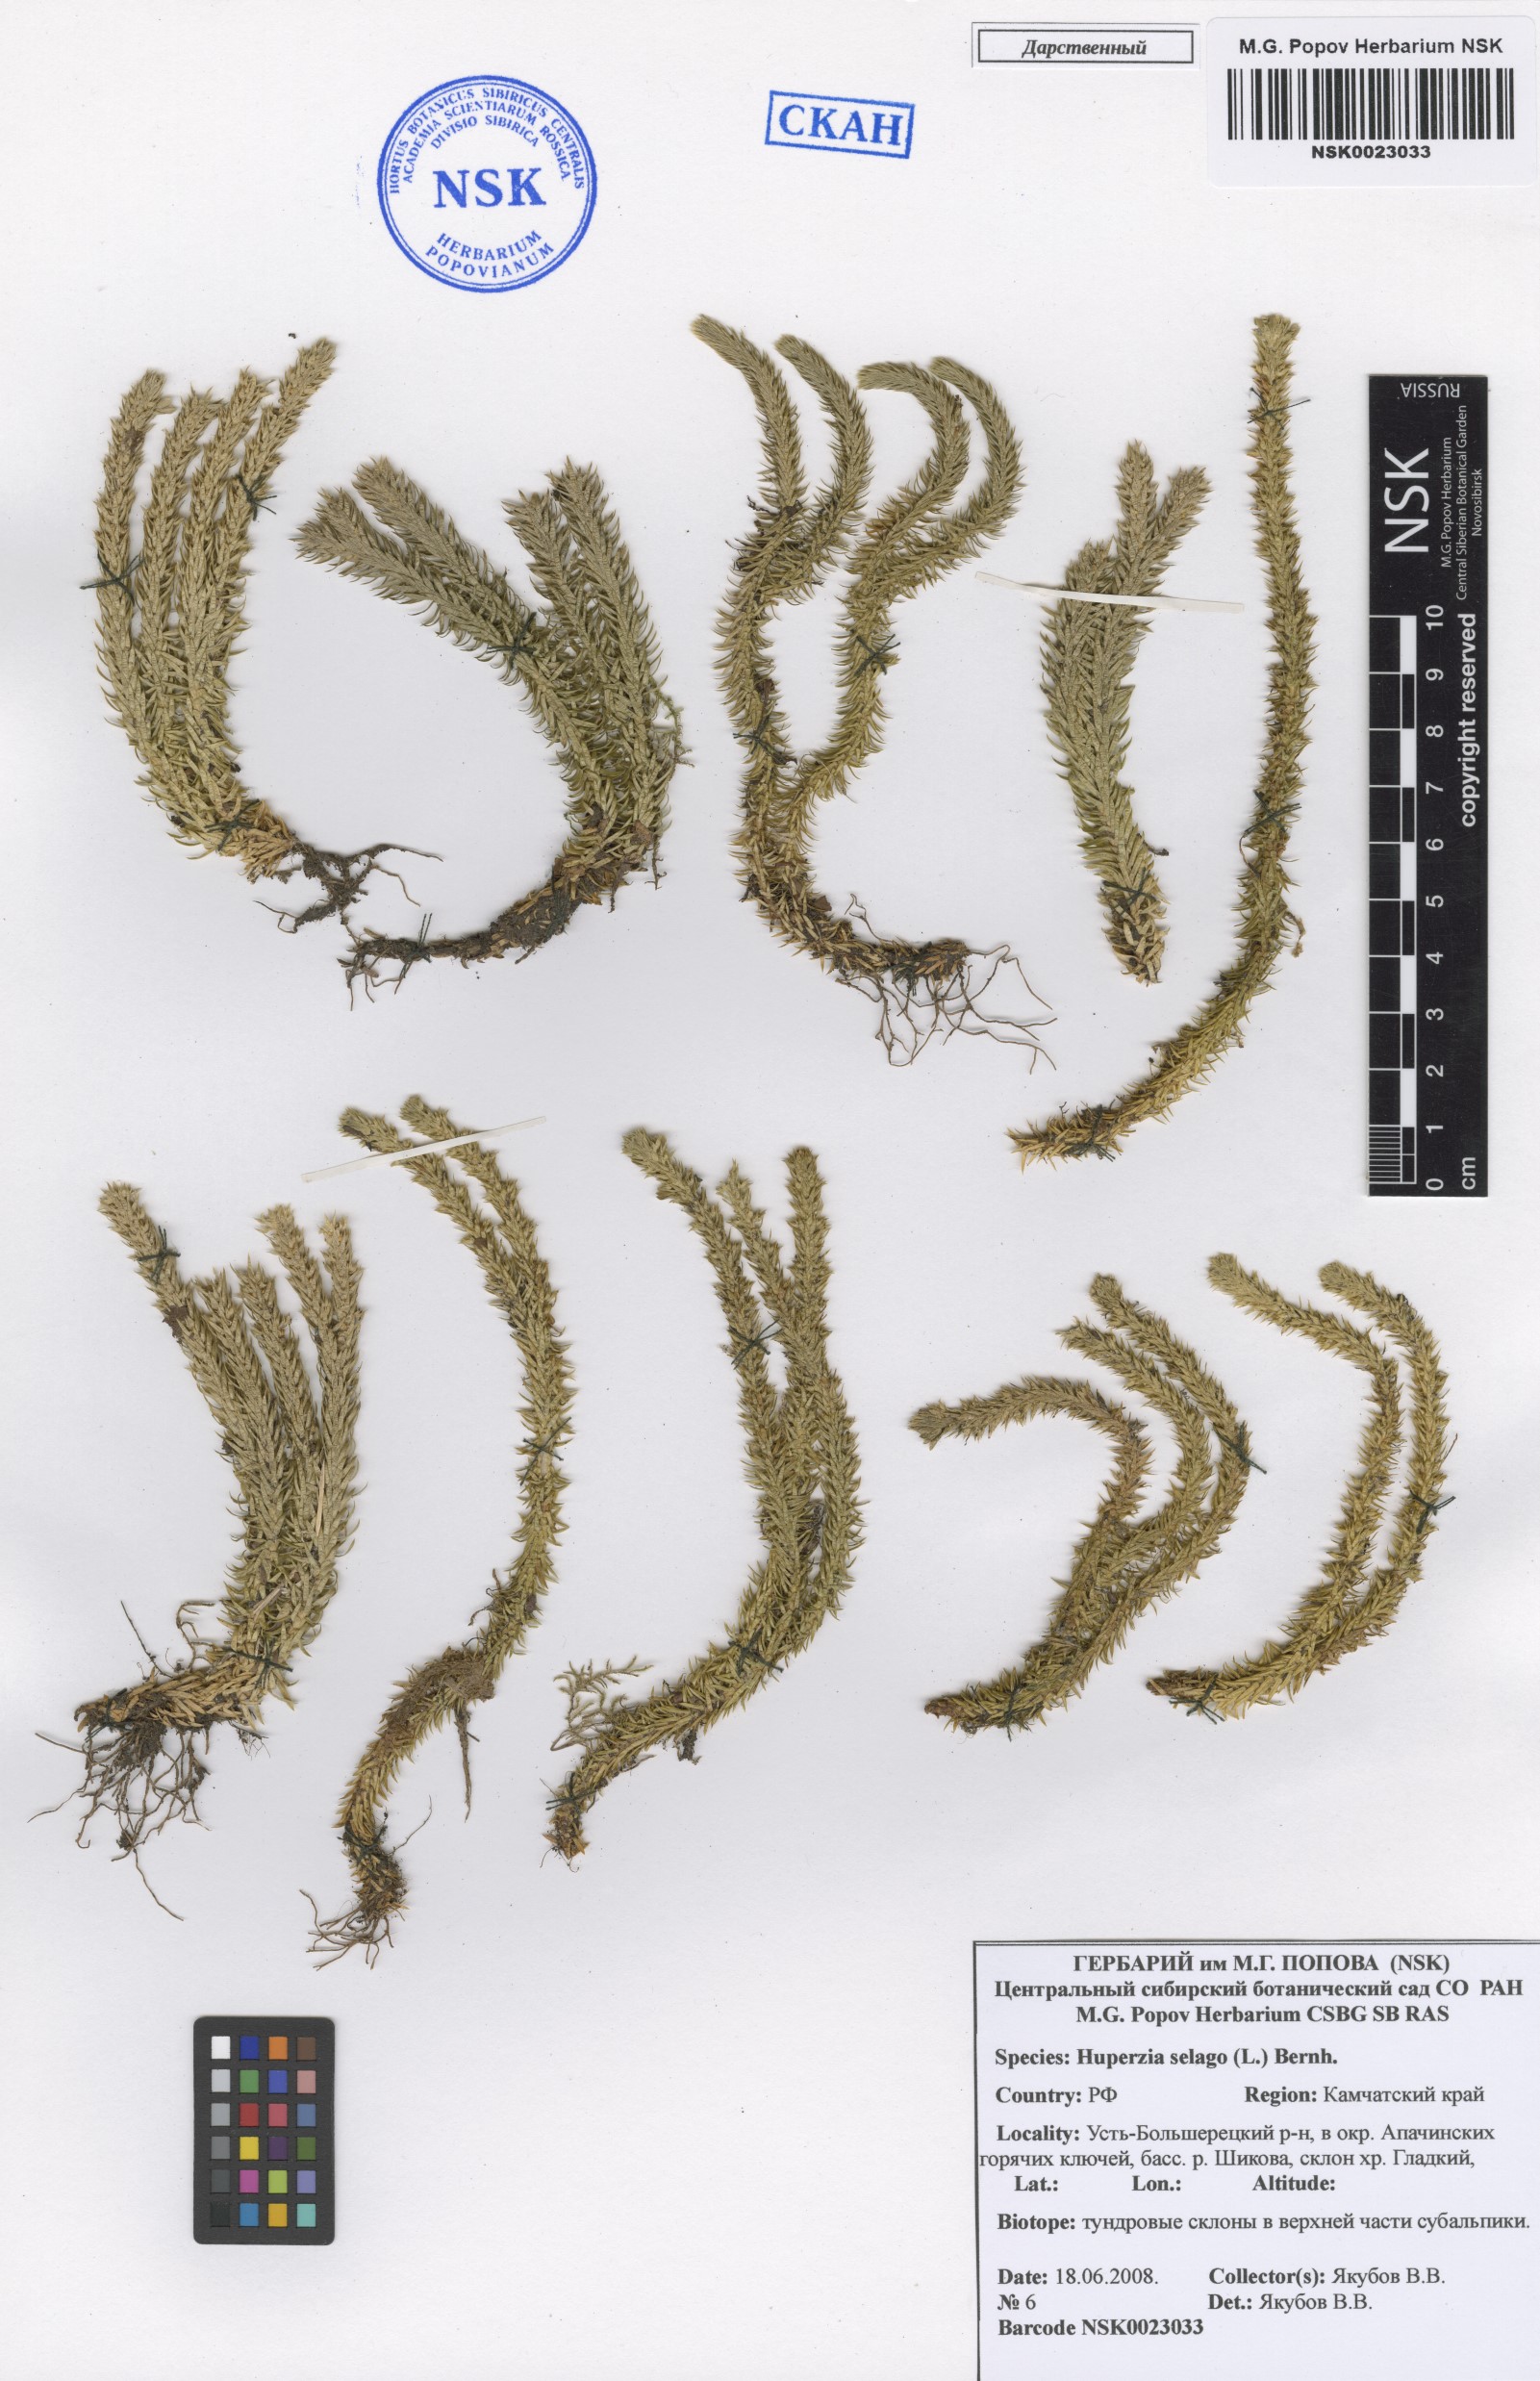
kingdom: Plantae
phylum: Tracheophyta
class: Lycopodiopsida
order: Lycopodiales
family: Lycopodiaceae
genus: Huperzia
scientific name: Huperzia selago
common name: Northern firmoss
